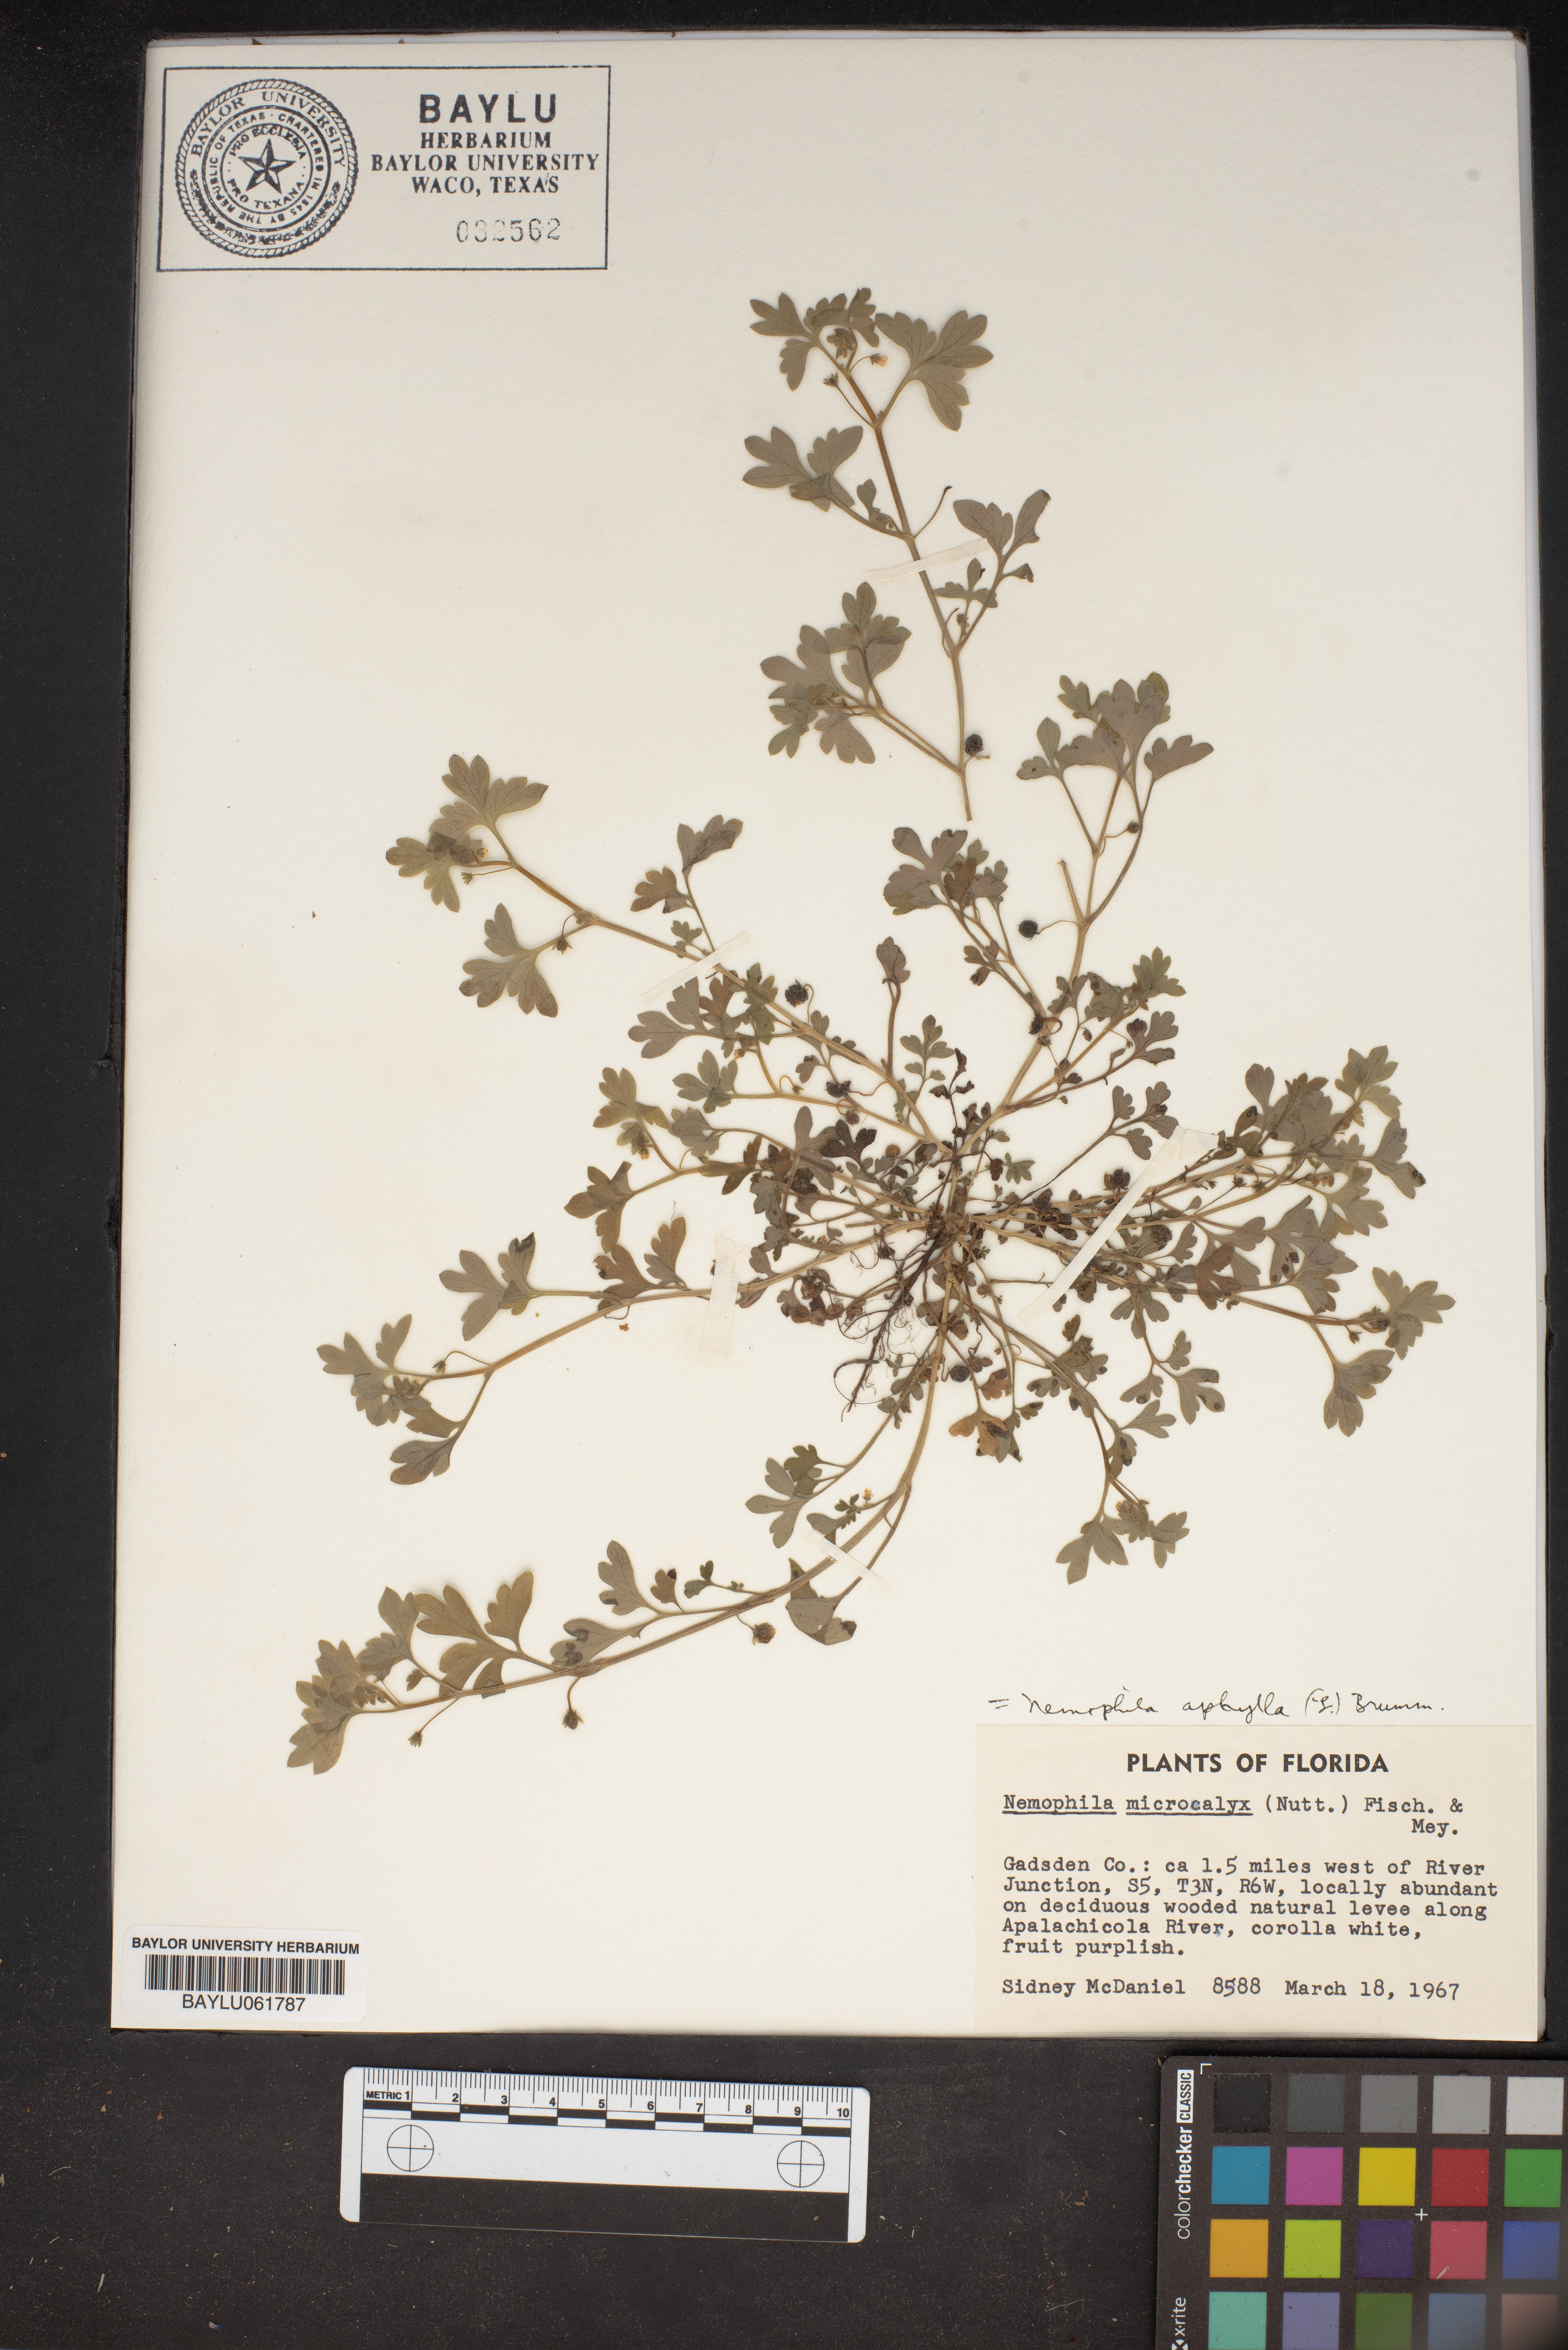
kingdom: Plantae
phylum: Tracheophyta
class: Magnoliopsida
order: Boraginales
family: Hydrophyllaceae
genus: Nemophila
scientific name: Nemophila aphylla
